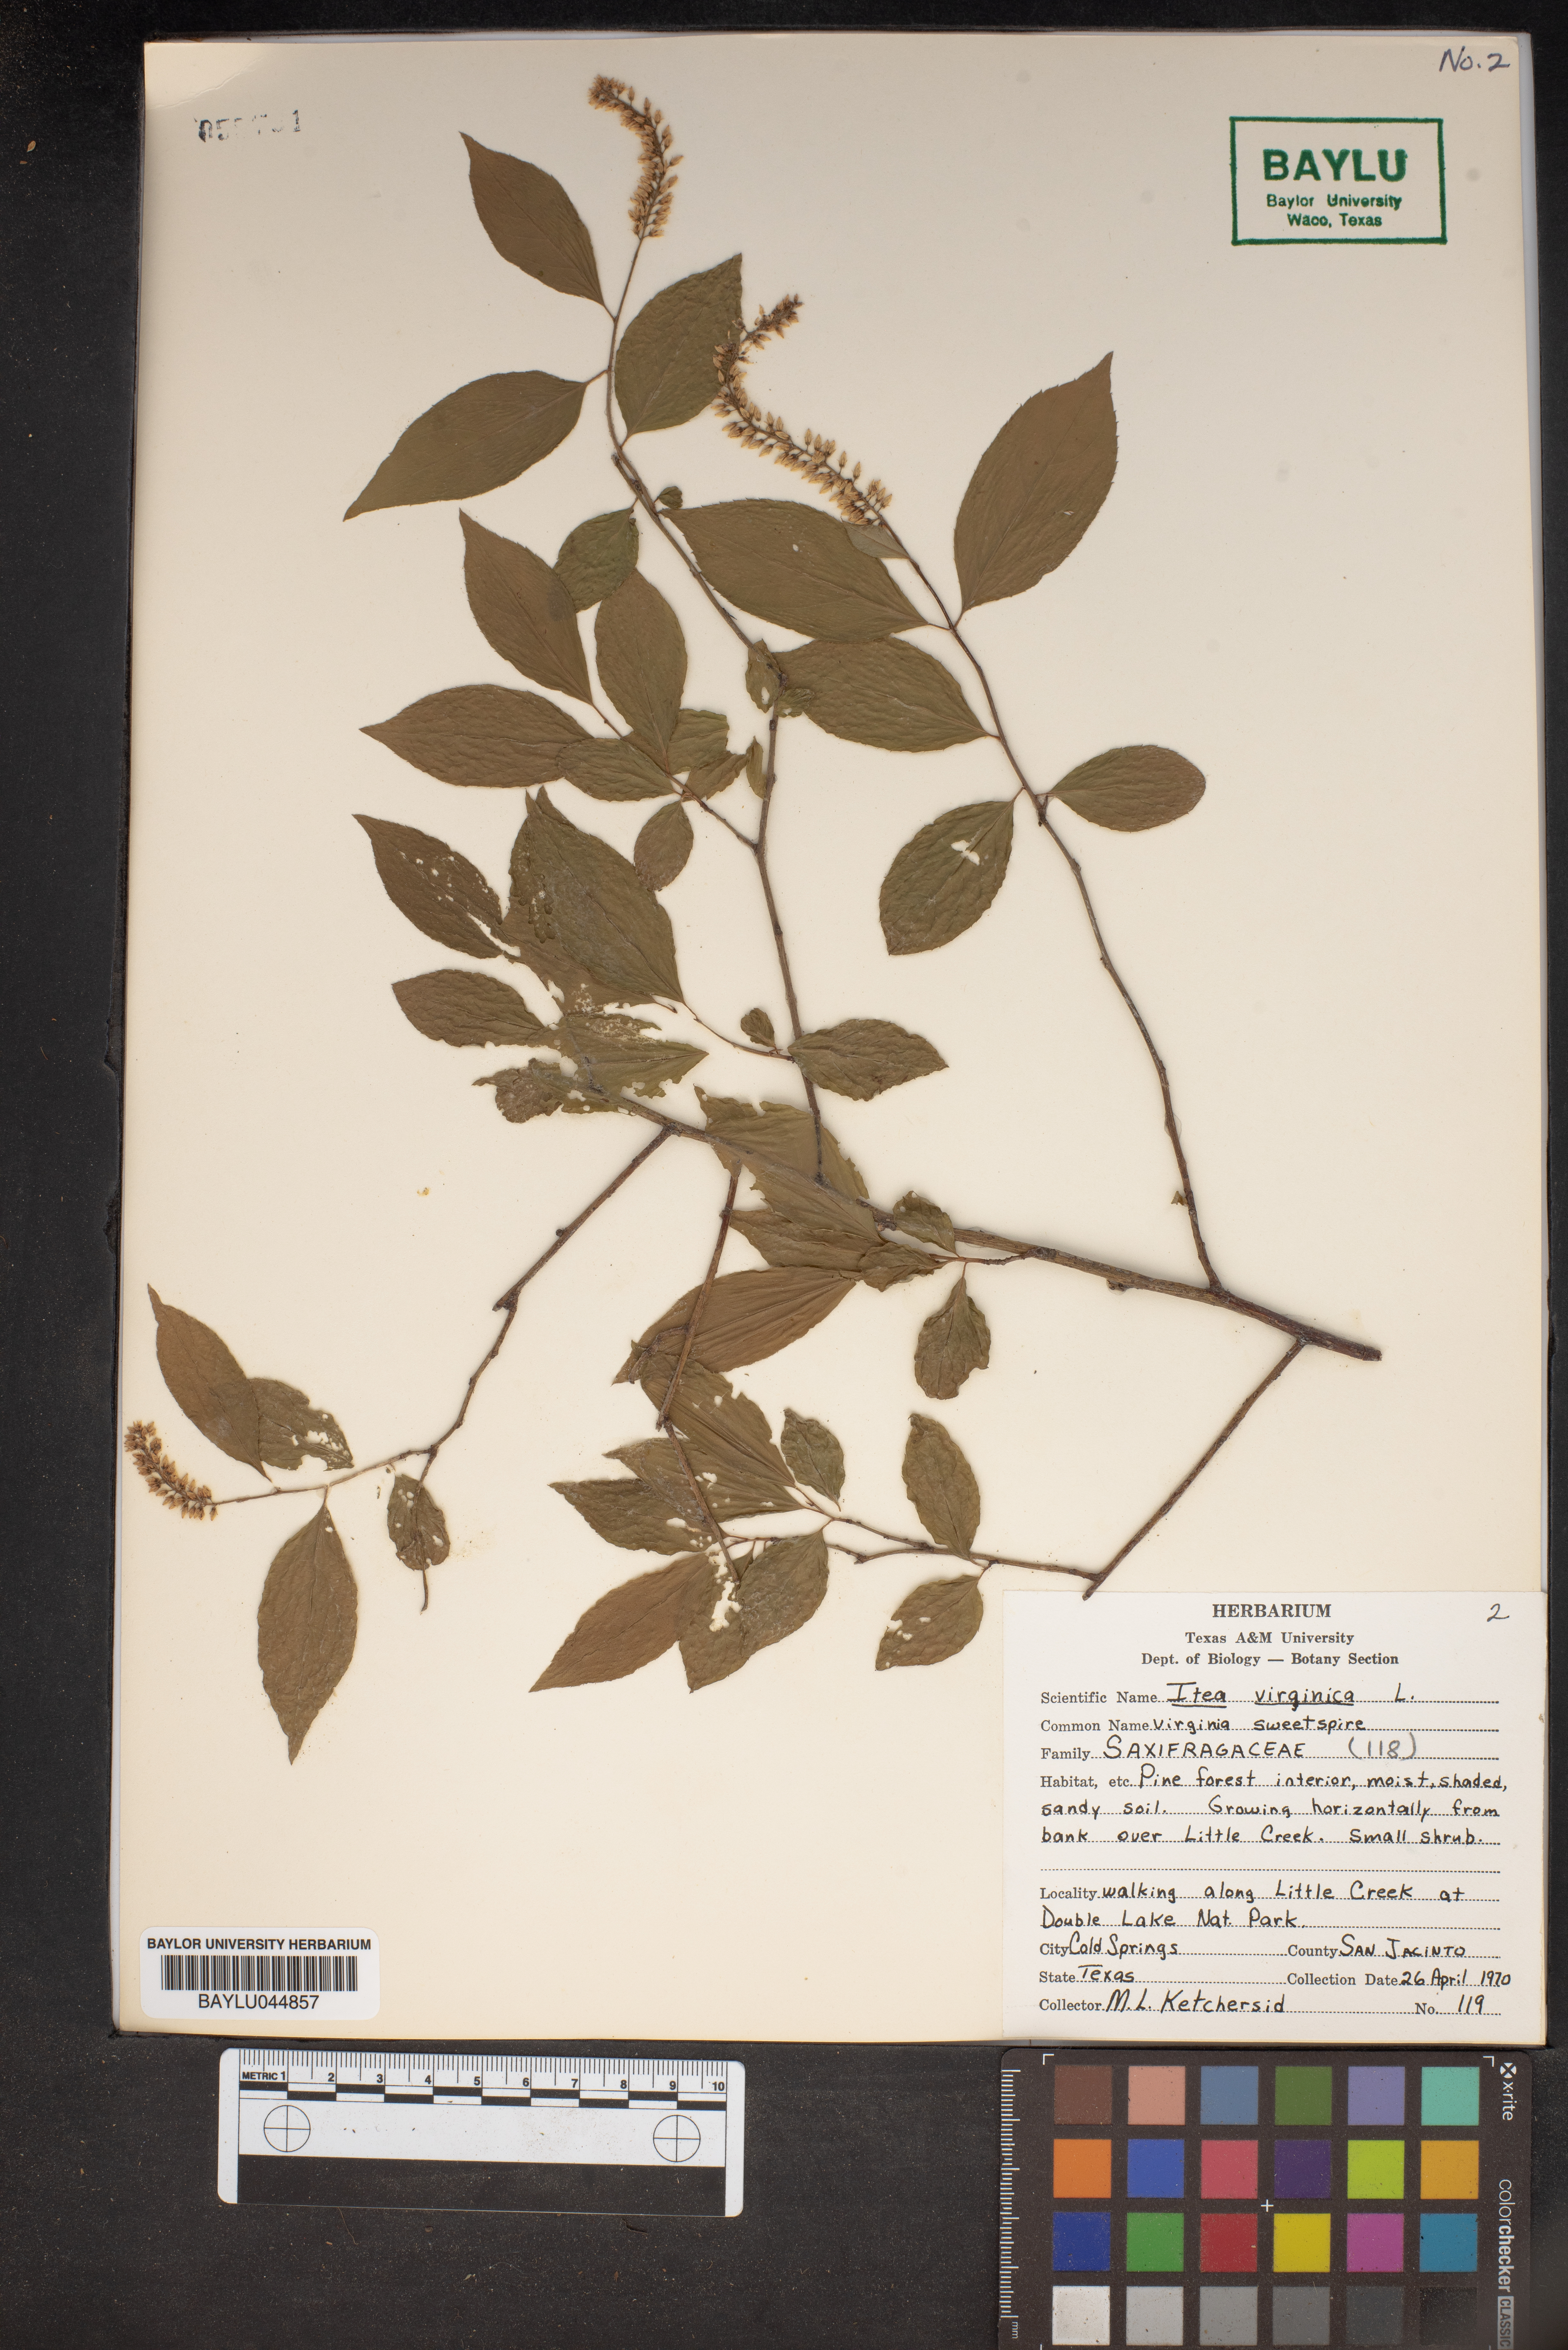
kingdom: Plantae
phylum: Tracheophyta
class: Magnoliopsida
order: Saxifragales
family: Iteaceae
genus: Itea
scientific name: Itea virginica
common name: Sweetspire
